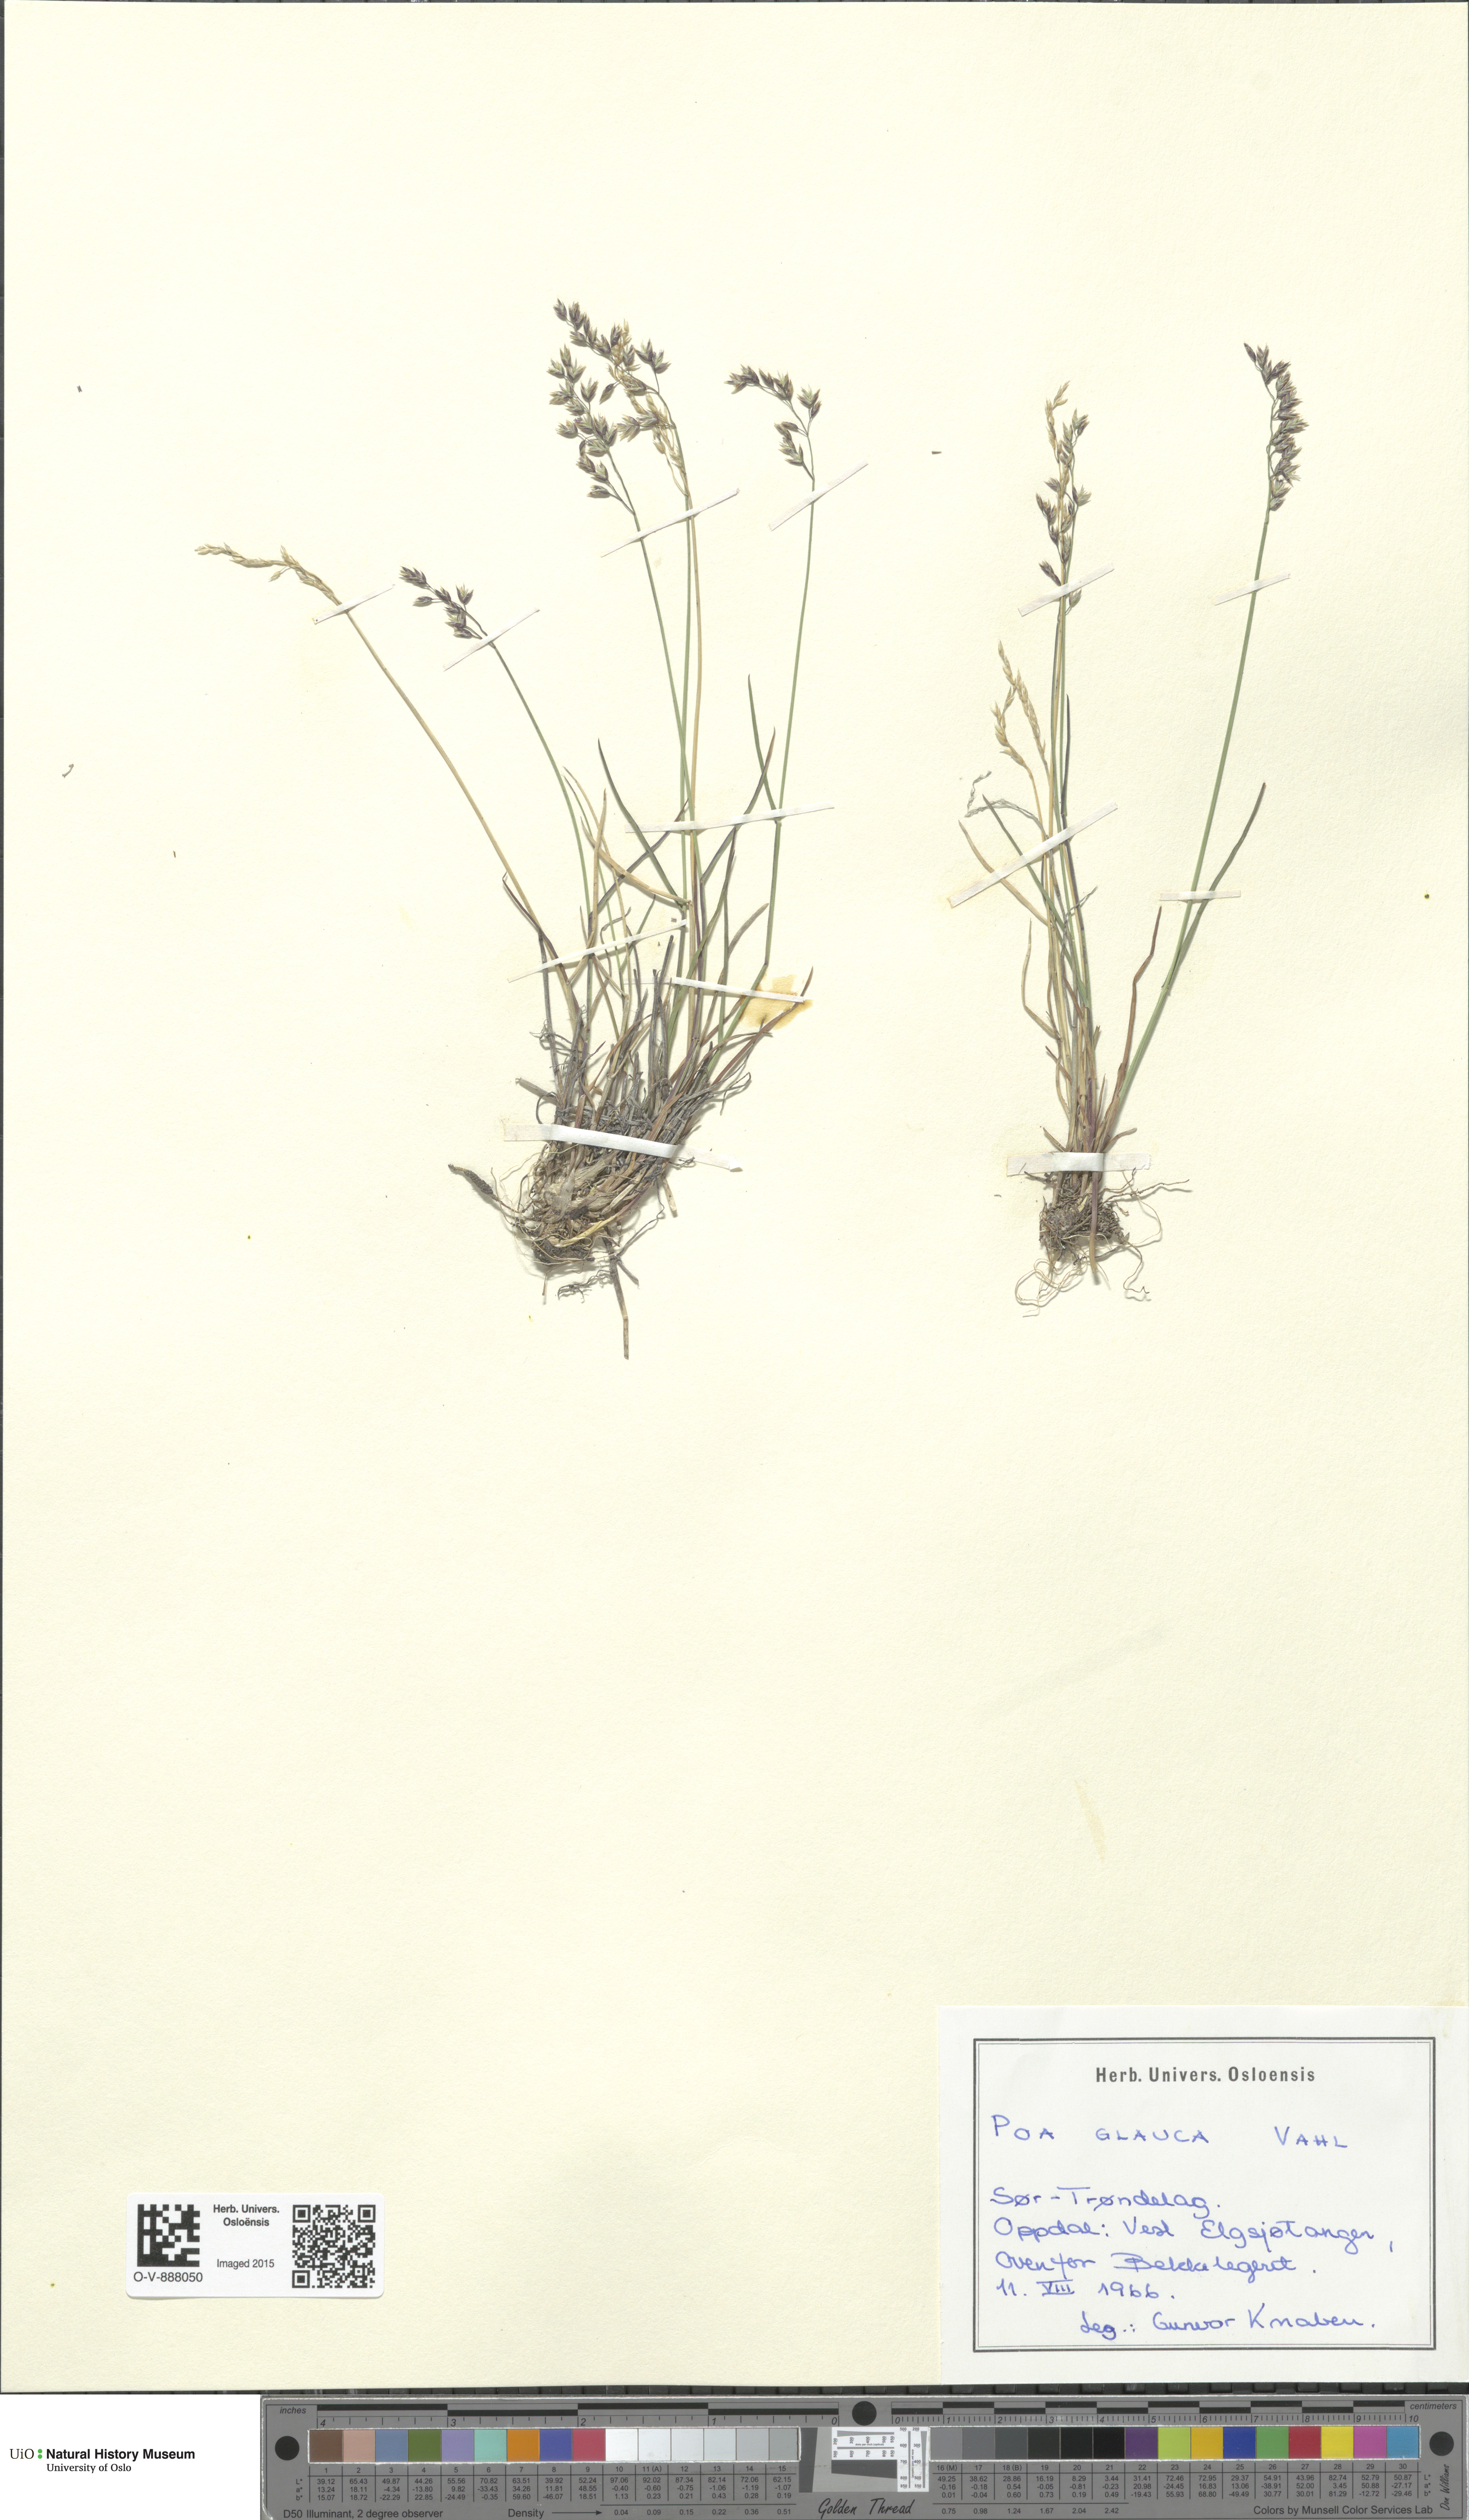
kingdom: Plantae
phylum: Tracheophyta
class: Liliopsida
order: Poales
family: Poaceae
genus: Poa
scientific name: Poa glauca
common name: Glaucous bluegrass
